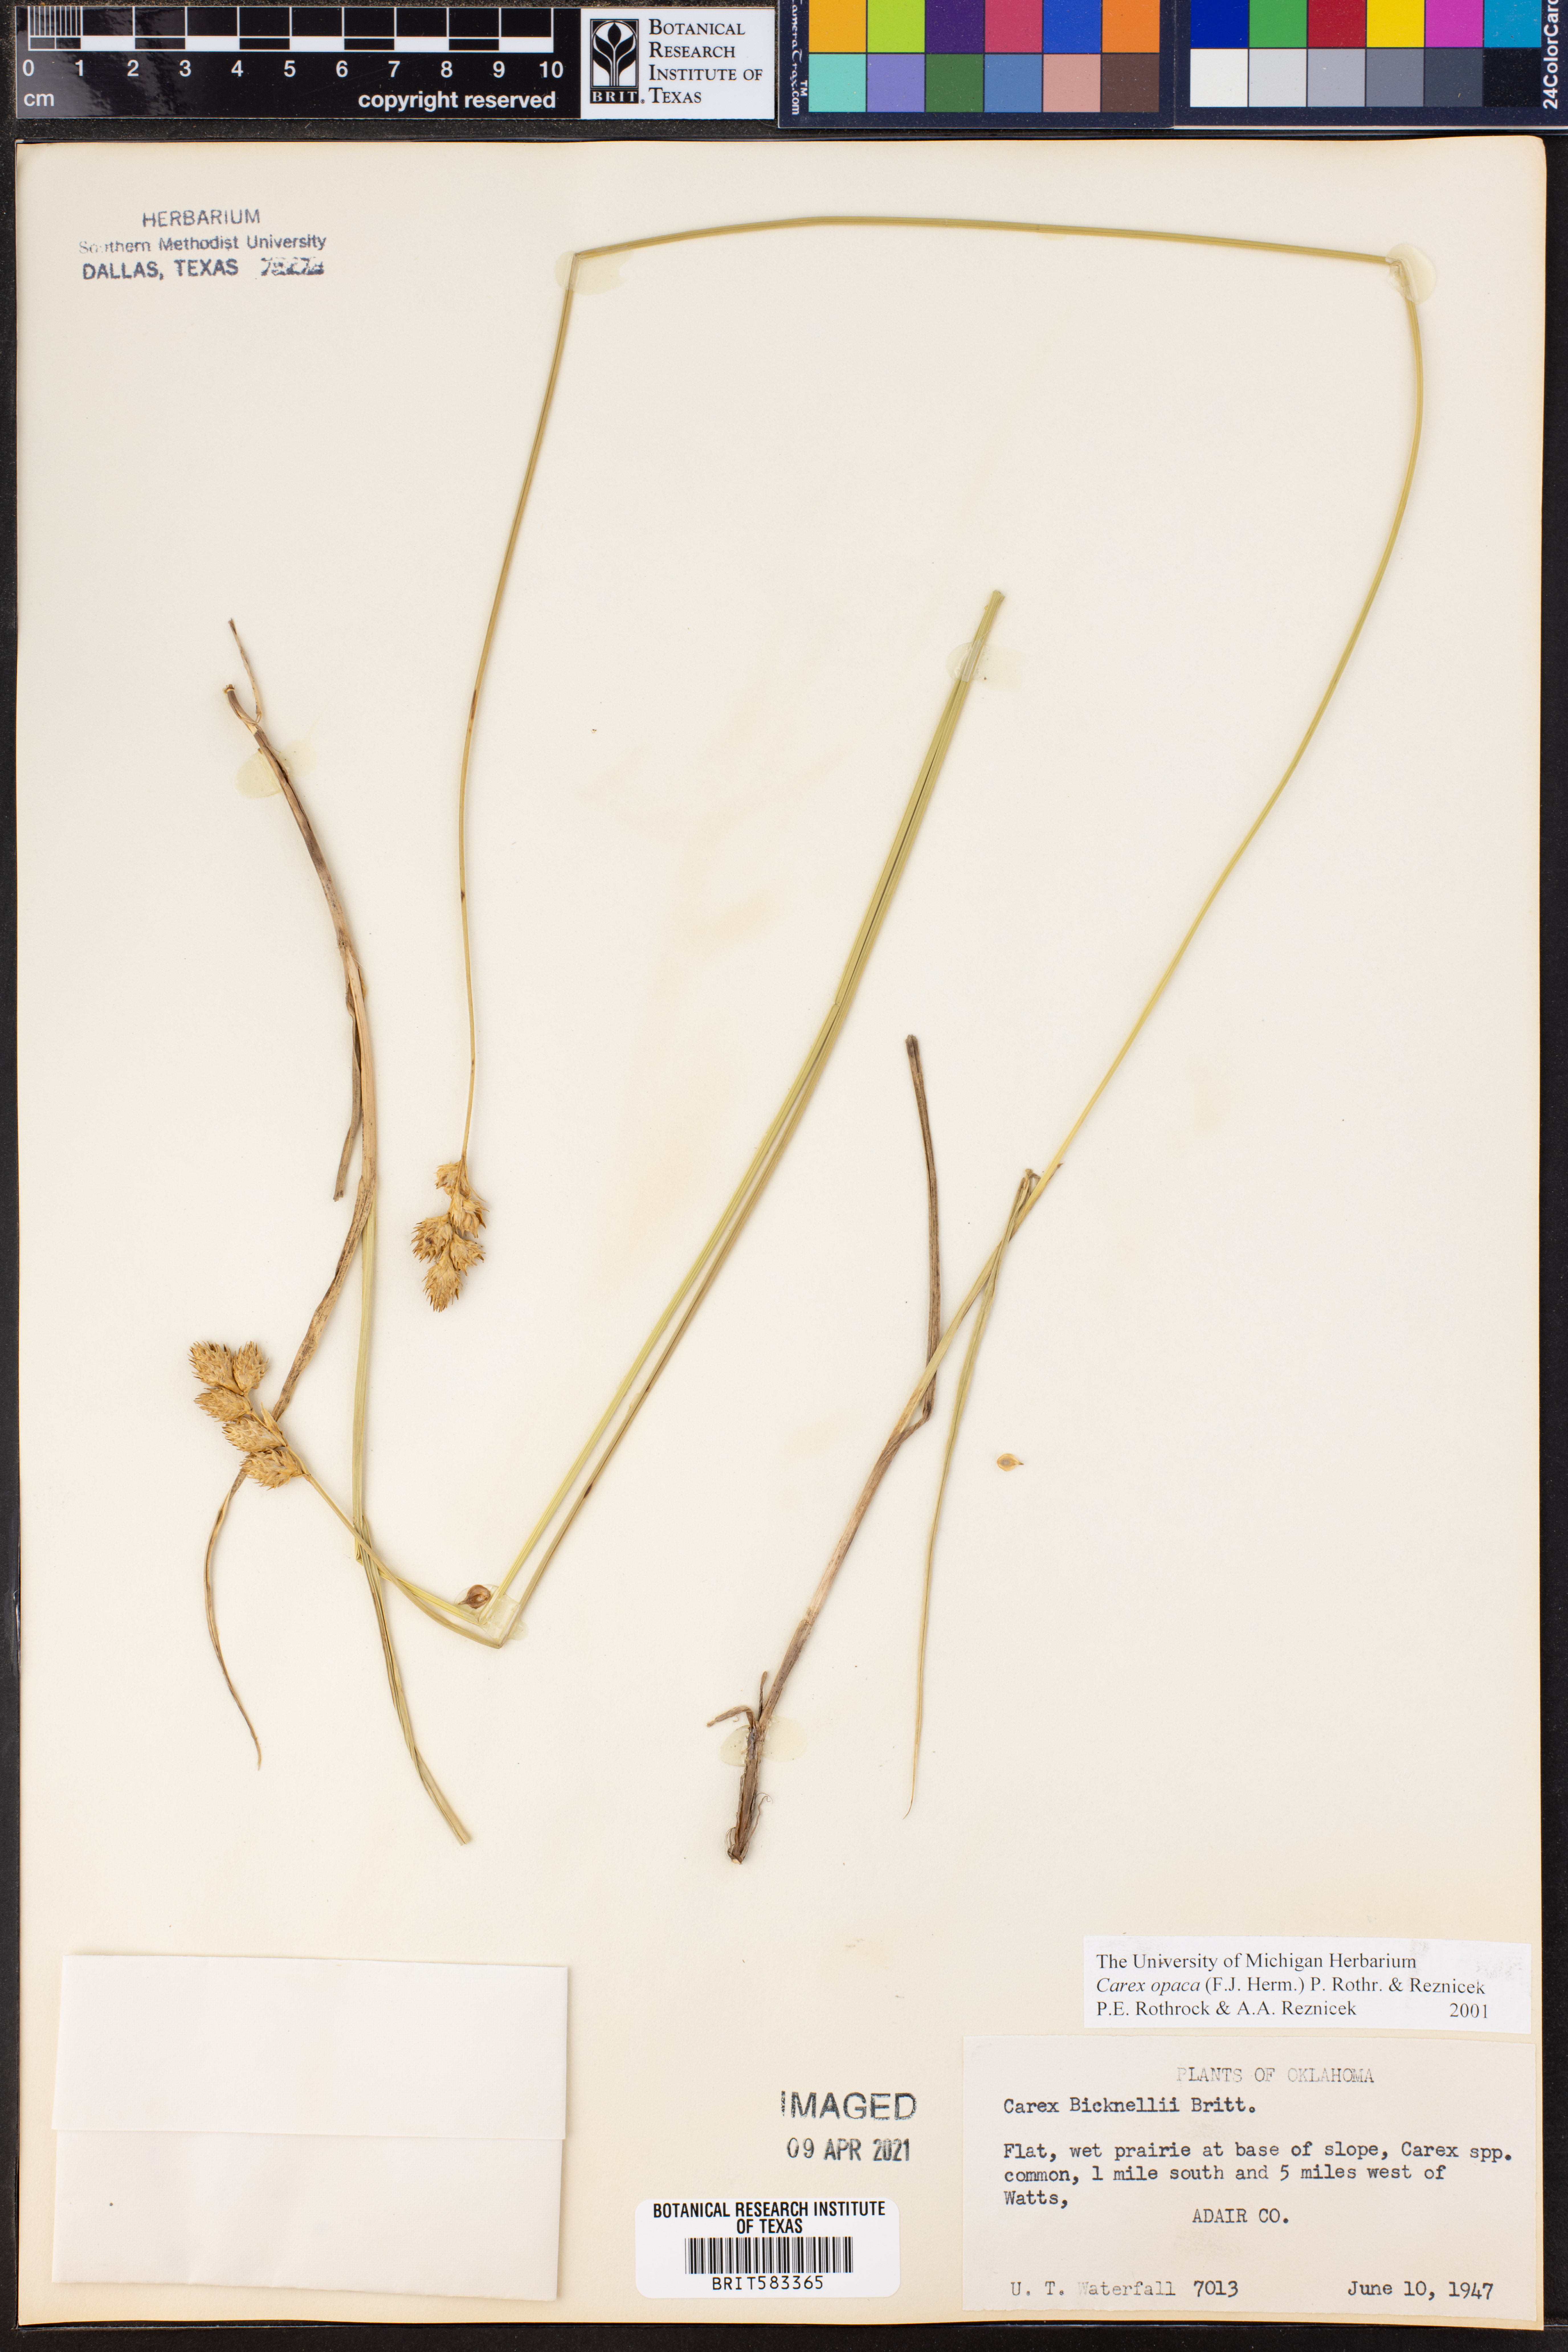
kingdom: Plantae
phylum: Tracheophyta
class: Liliopsida
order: Poales
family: Cyperaceae
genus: Carex
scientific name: Carex opaca
